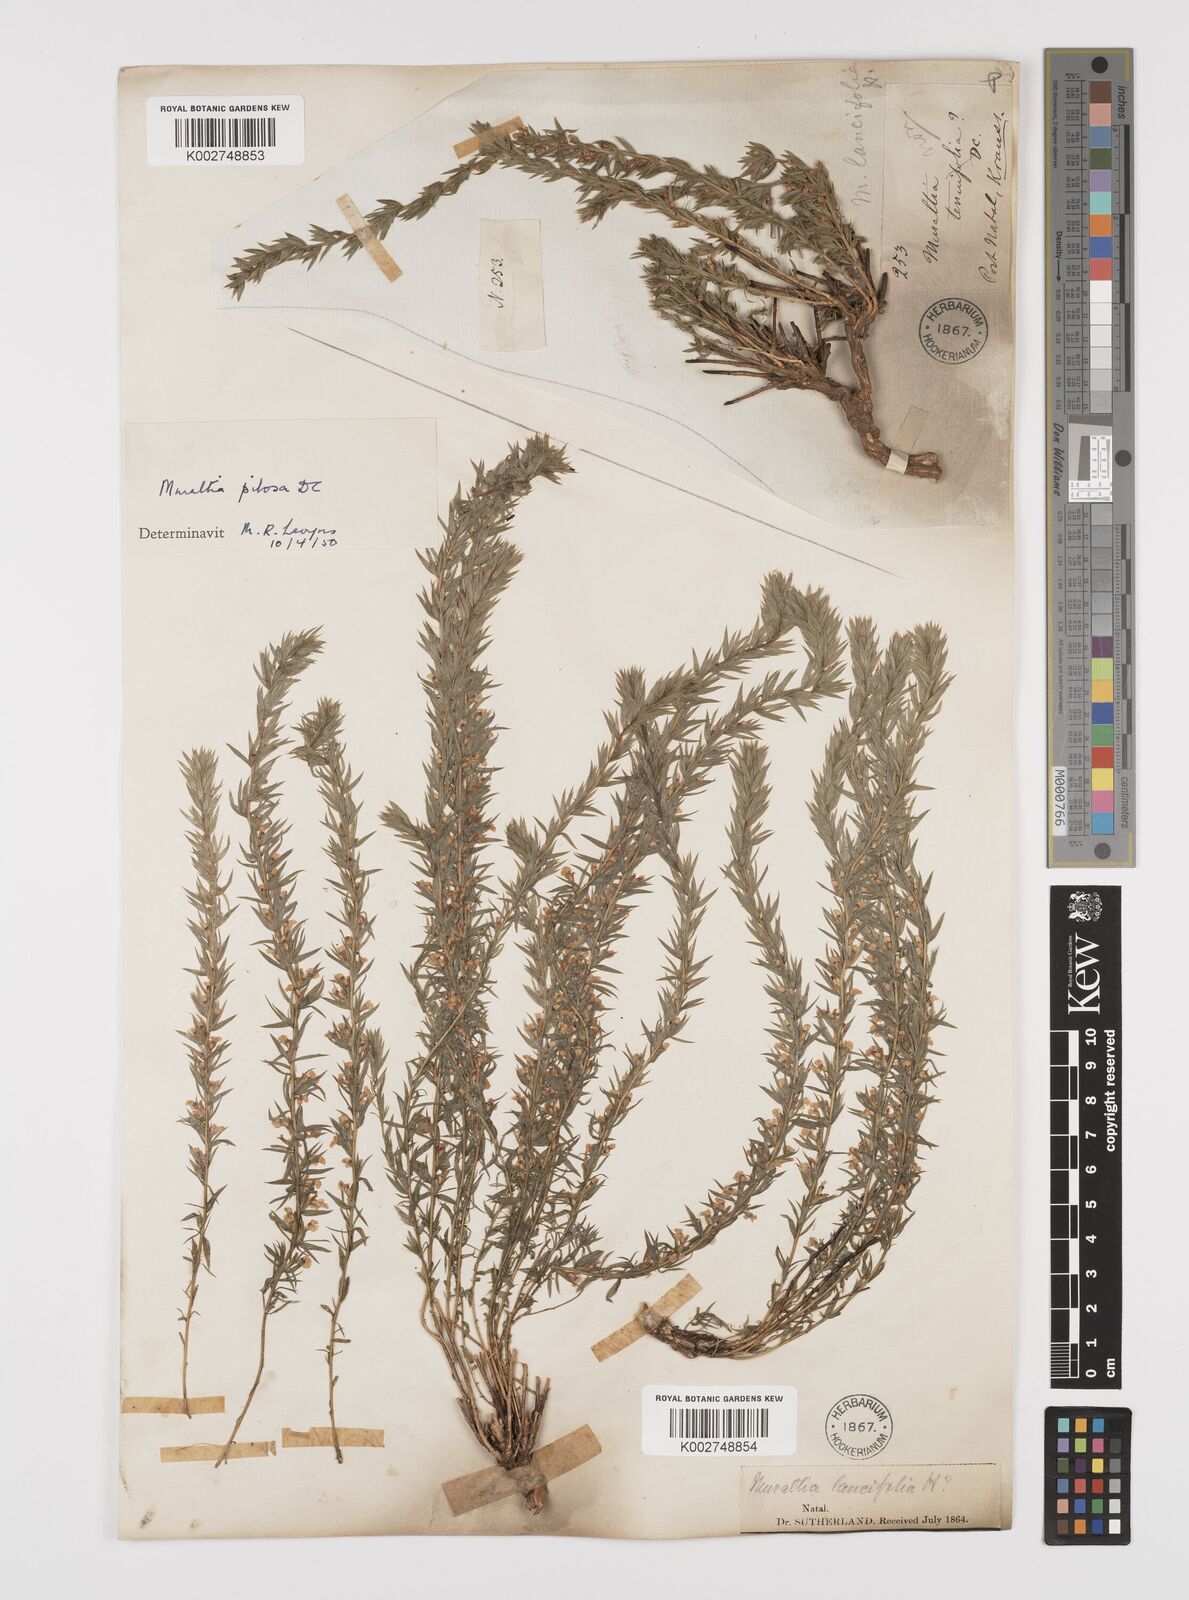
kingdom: Plantae
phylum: Tracheophyta
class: Magnoliopsida
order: Fabales
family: Polygalaceae
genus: Muraltia
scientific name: Muraltia lancifolia
